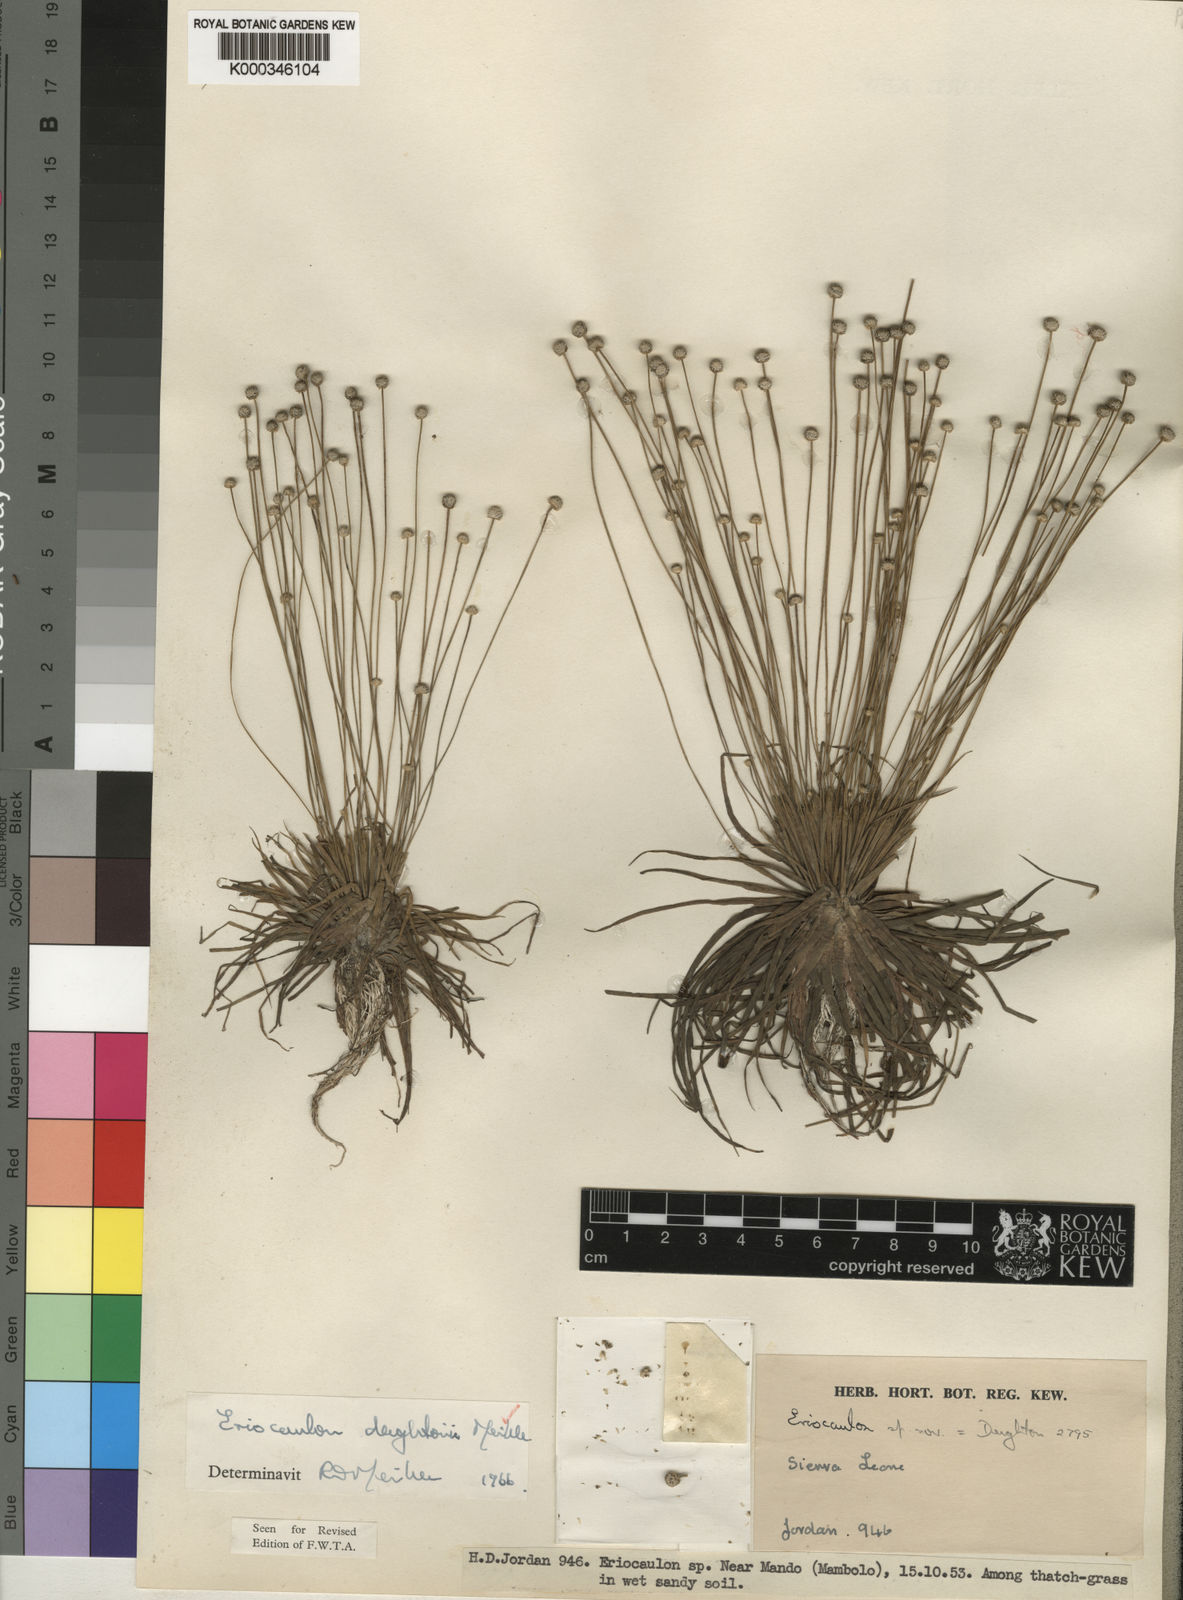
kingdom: Plantae
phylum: Tracheophyta
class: Liliopsida
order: Poales
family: Eriocaulaceae
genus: Eriocaulon
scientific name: Eriocaulon deightonii
